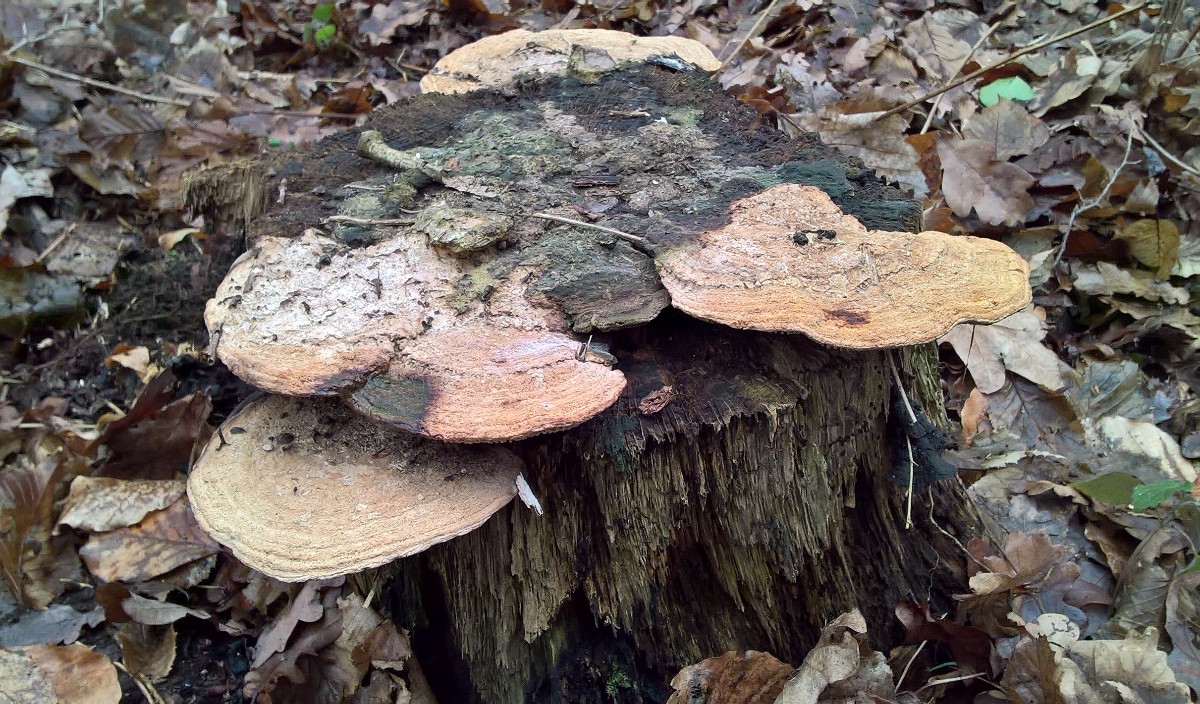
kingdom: Fungi
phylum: Basidiomycota
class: Agaricomycetes
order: Polyporales
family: Fomitopsidaceae
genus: Daedalea
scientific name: Daedalea quercina
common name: ege-labyrintsvamp
